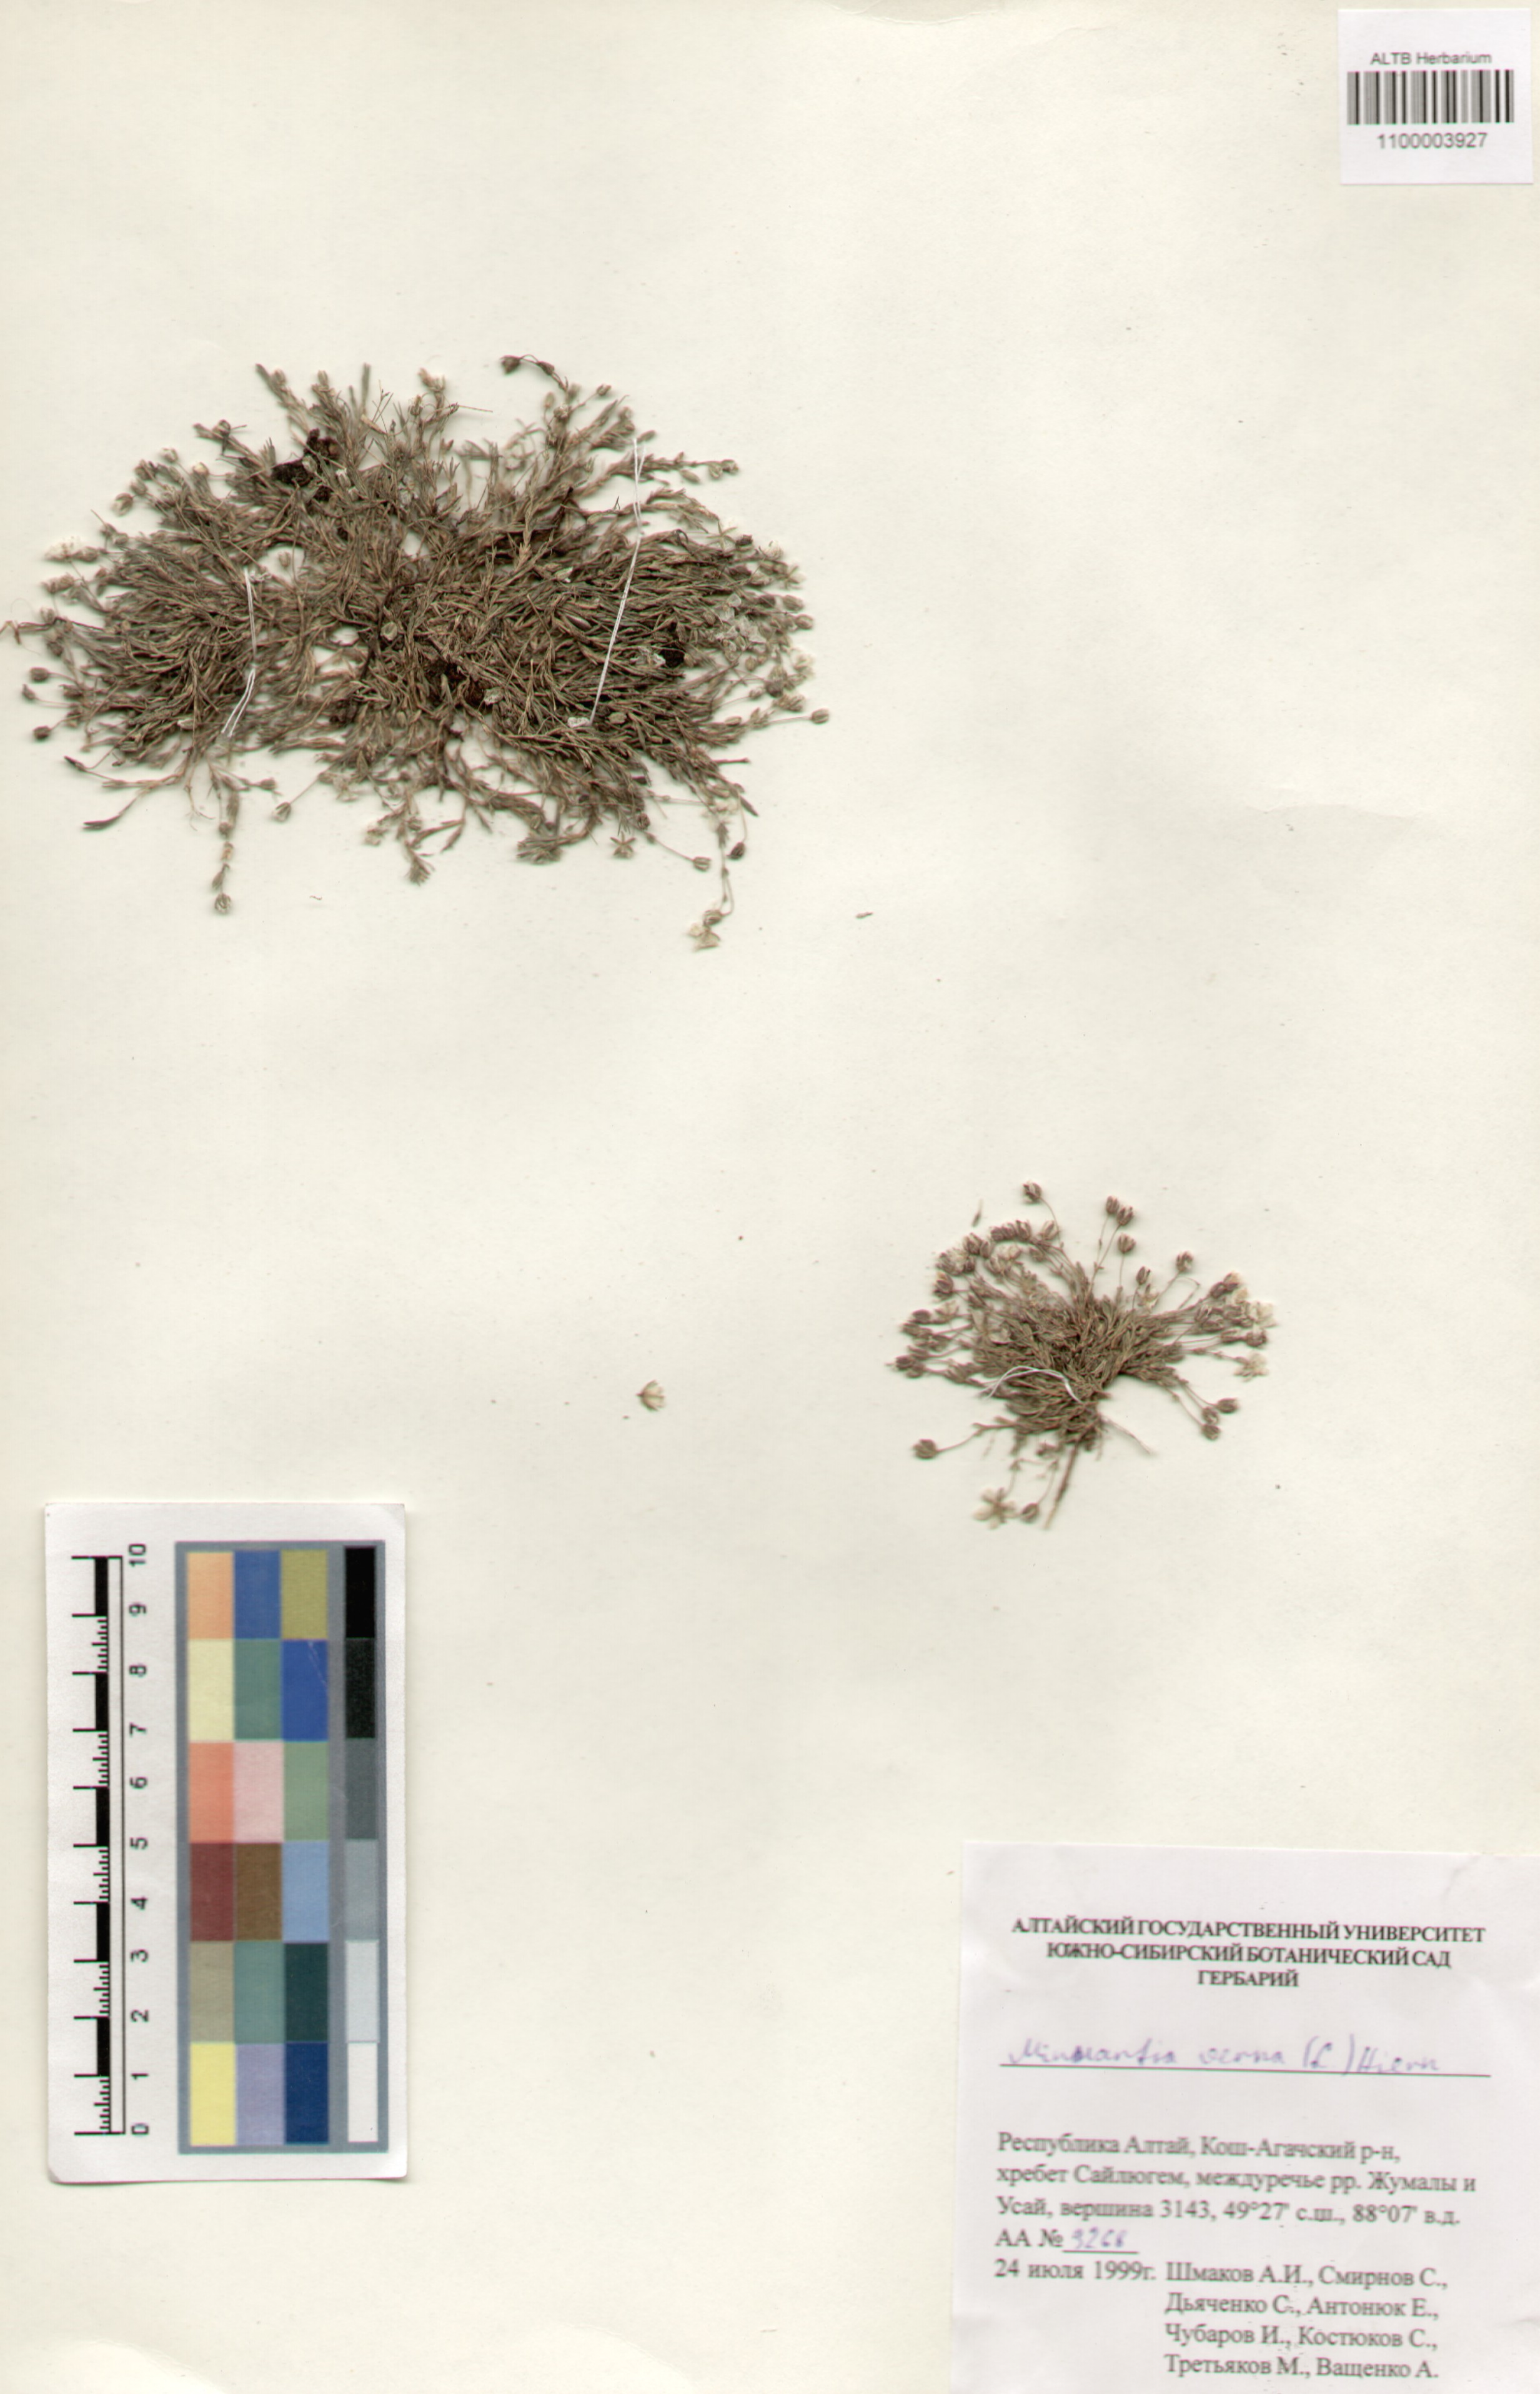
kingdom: Plantae
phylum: Tracheophyta
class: Magnoliopsida
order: Caryophyllales
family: Caryophyllaceae
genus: Sabulina
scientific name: Sabulina verna
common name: Spring sandwort
